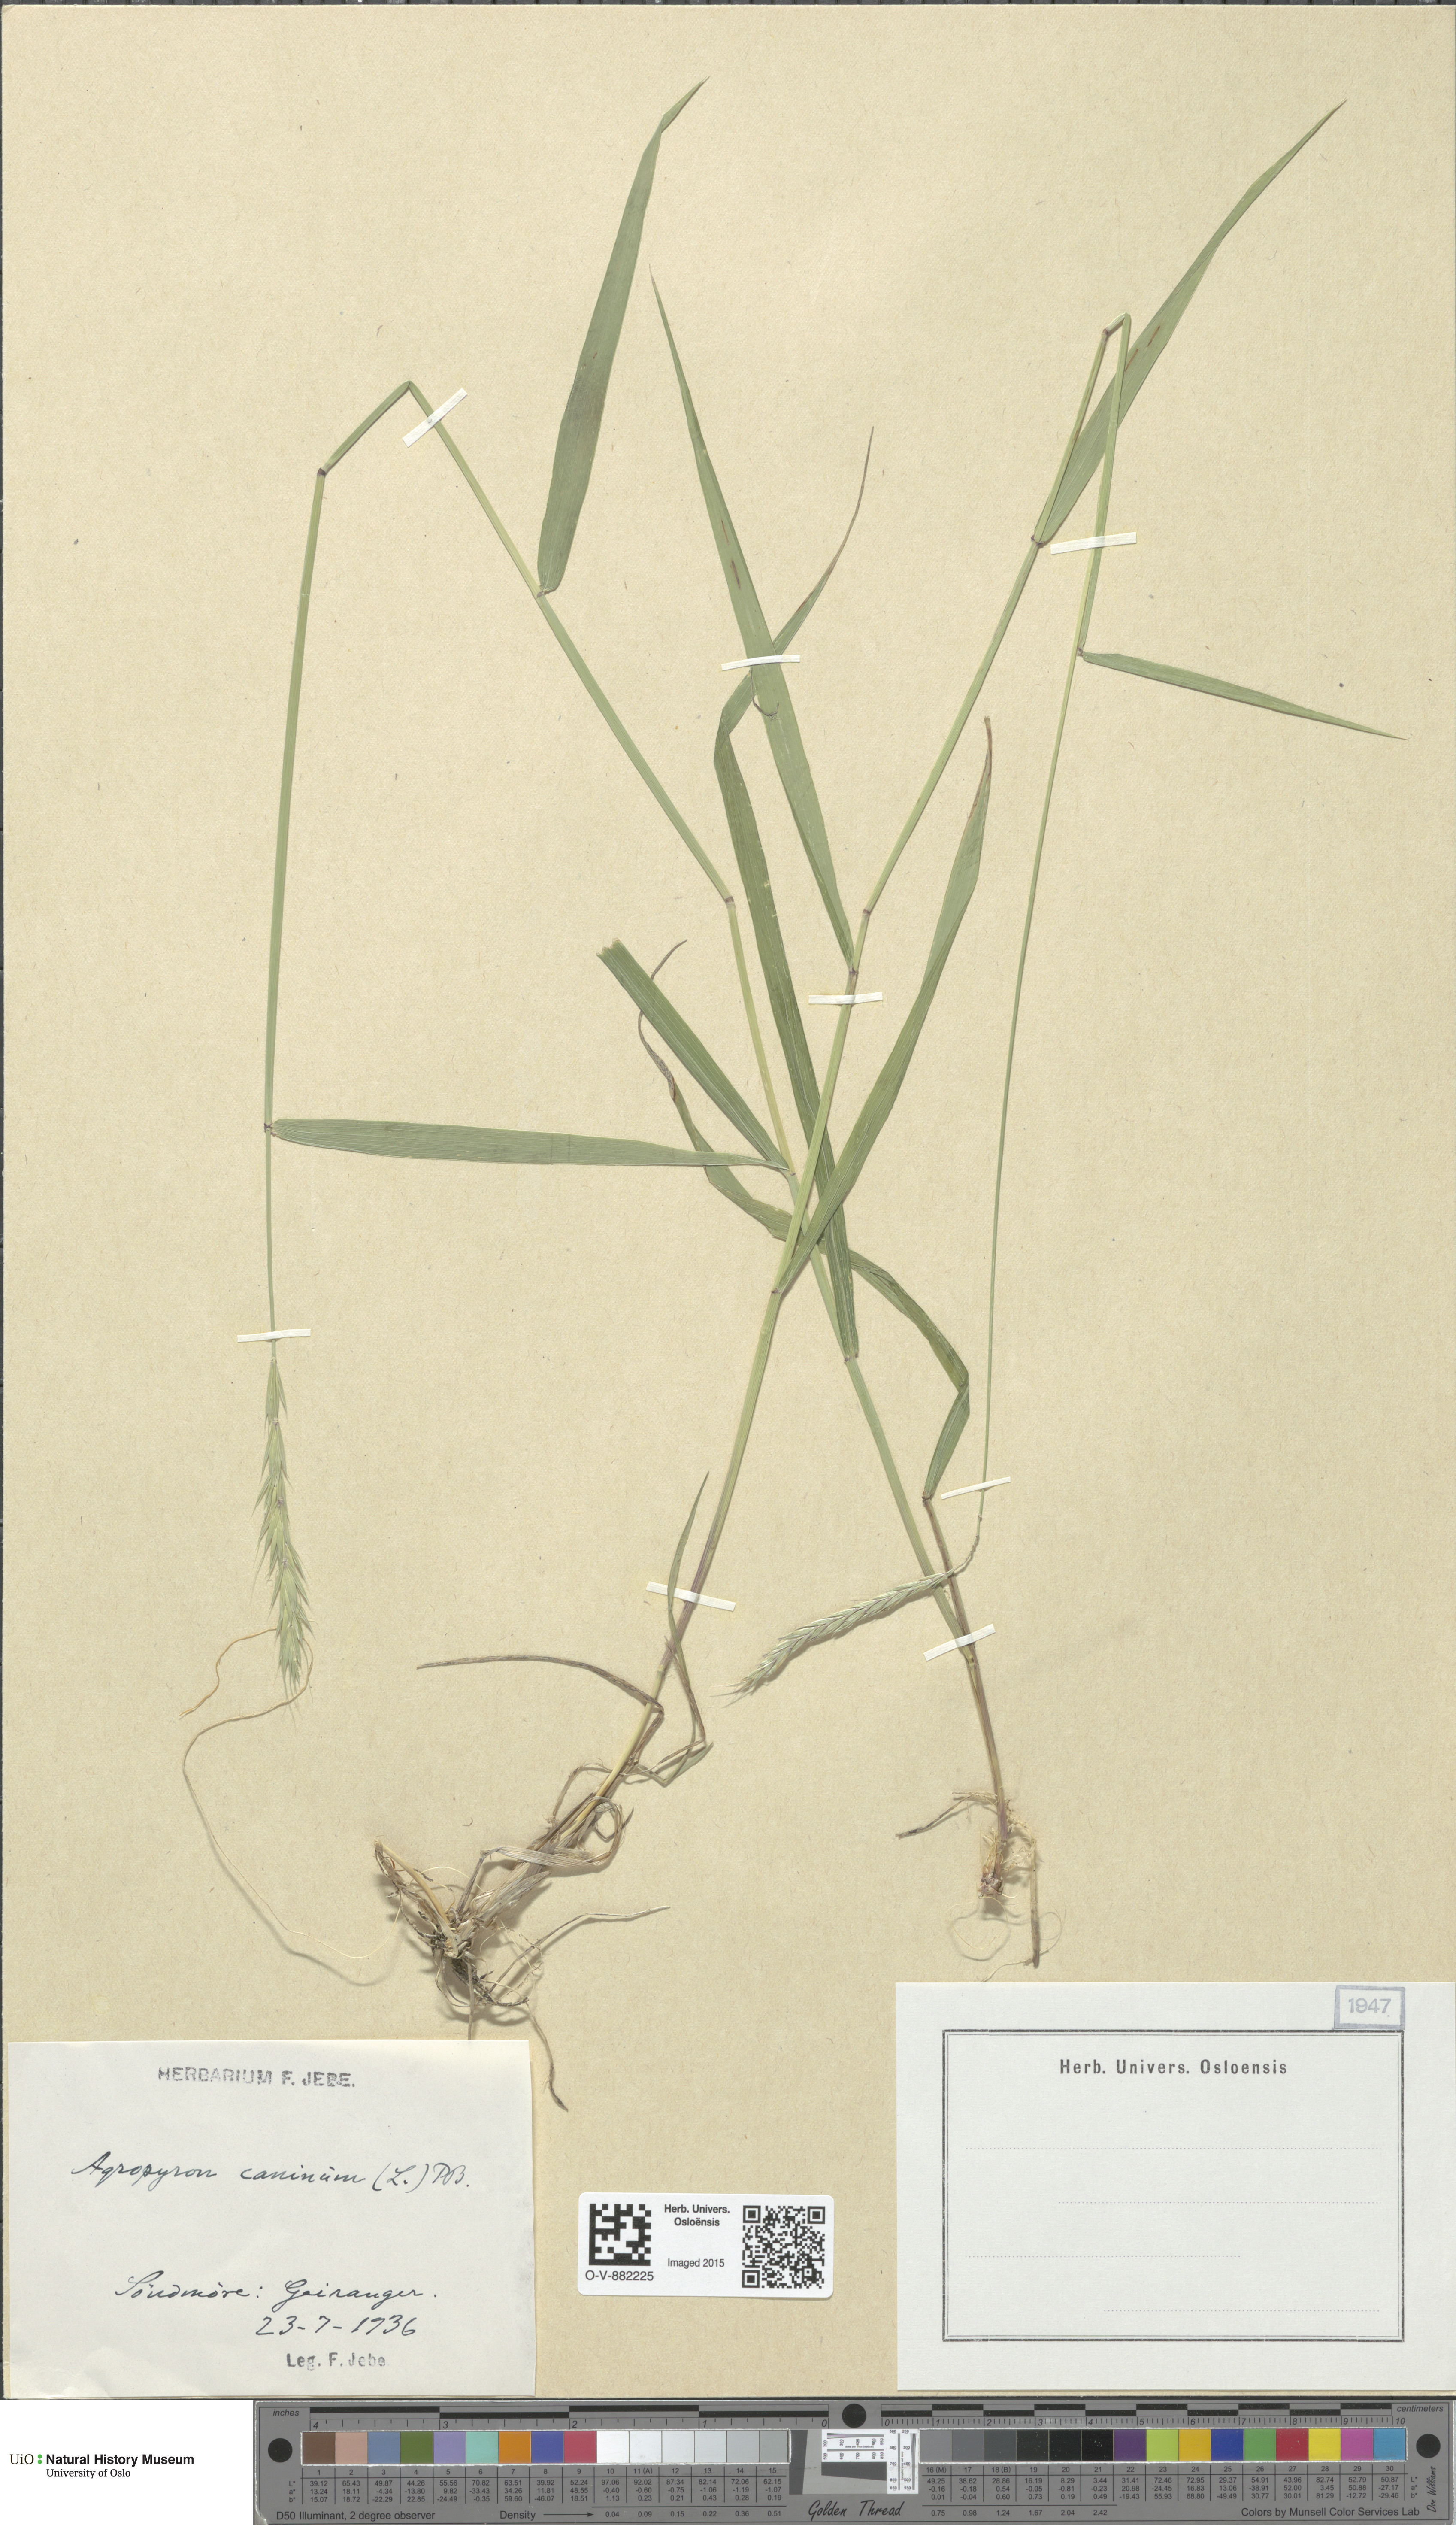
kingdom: Plantae
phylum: Tracheophyta
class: Liliopsida
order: Poales
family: Poaceae
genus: Elymus
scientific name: Elymus caninus
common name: Bearded couch
